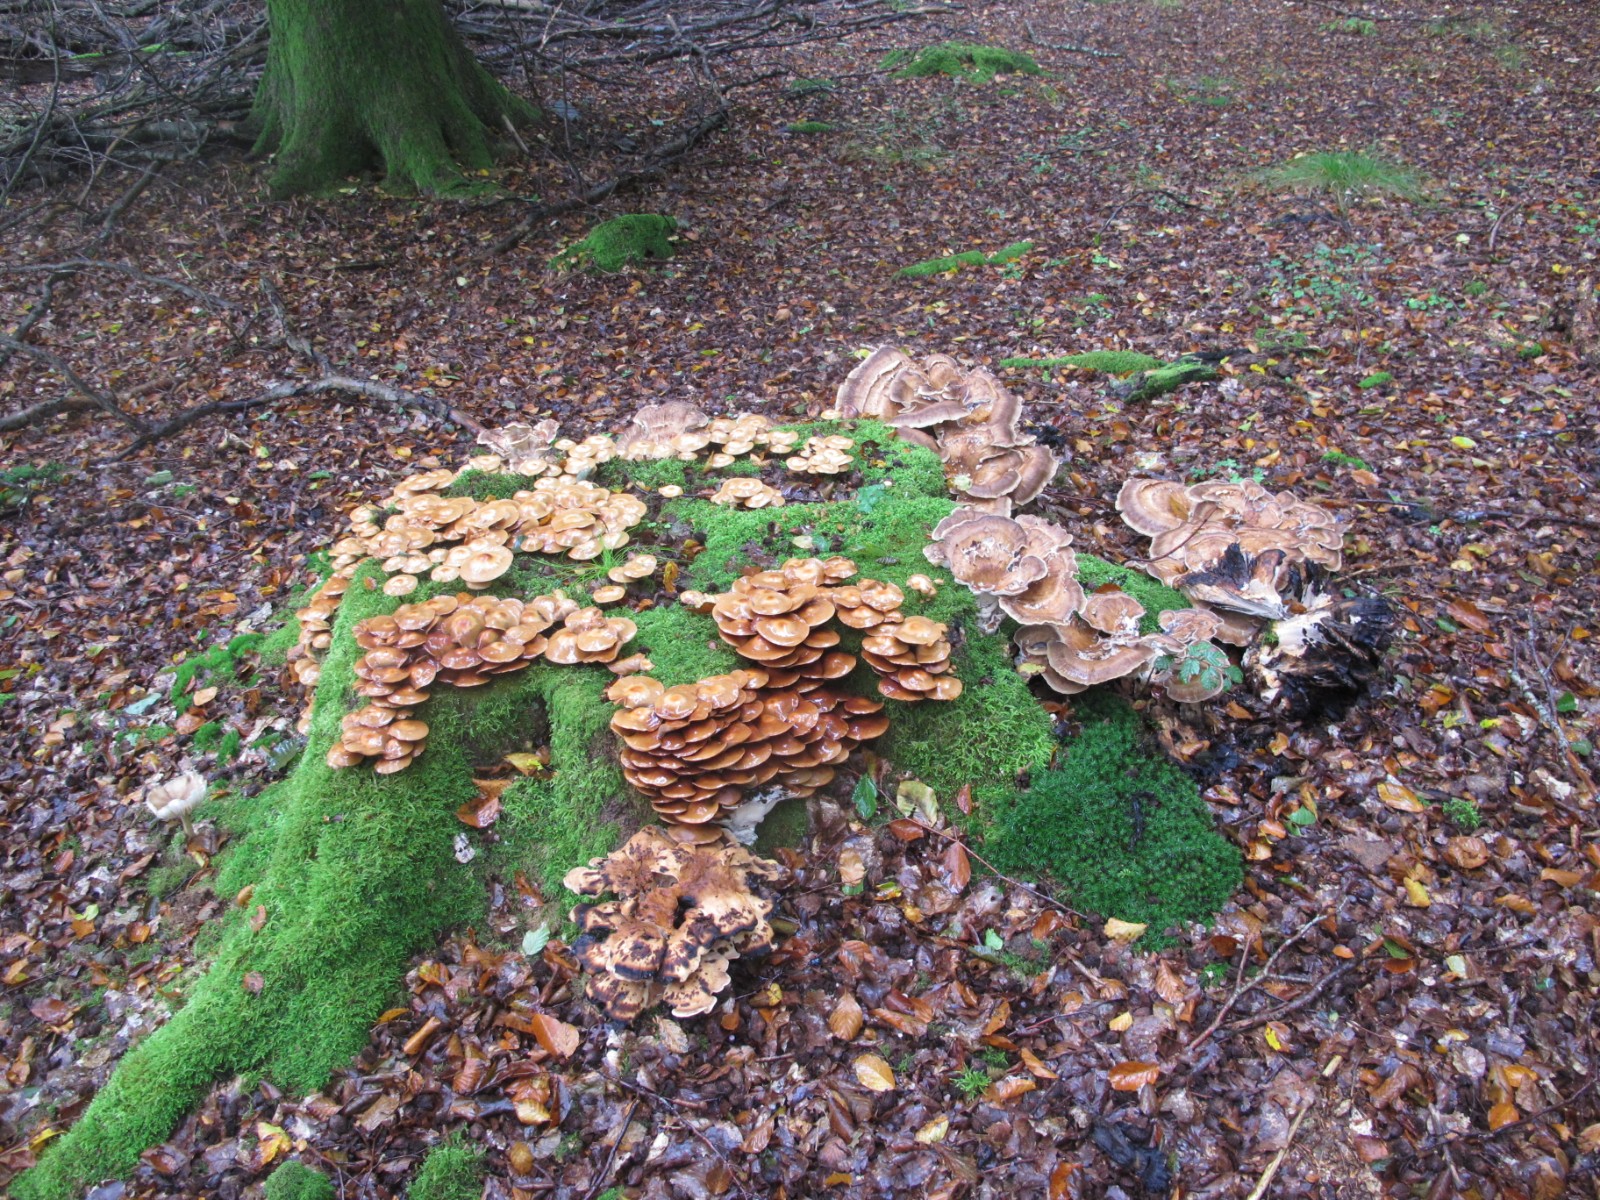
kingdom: Fungi
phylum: Basidiomycota
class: Agaricomycetes
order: Agaricales
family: Strophariaceae
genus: Kuehneromyces
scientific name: Kuehneromyces mutabilis
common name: foranderlig skælhat
